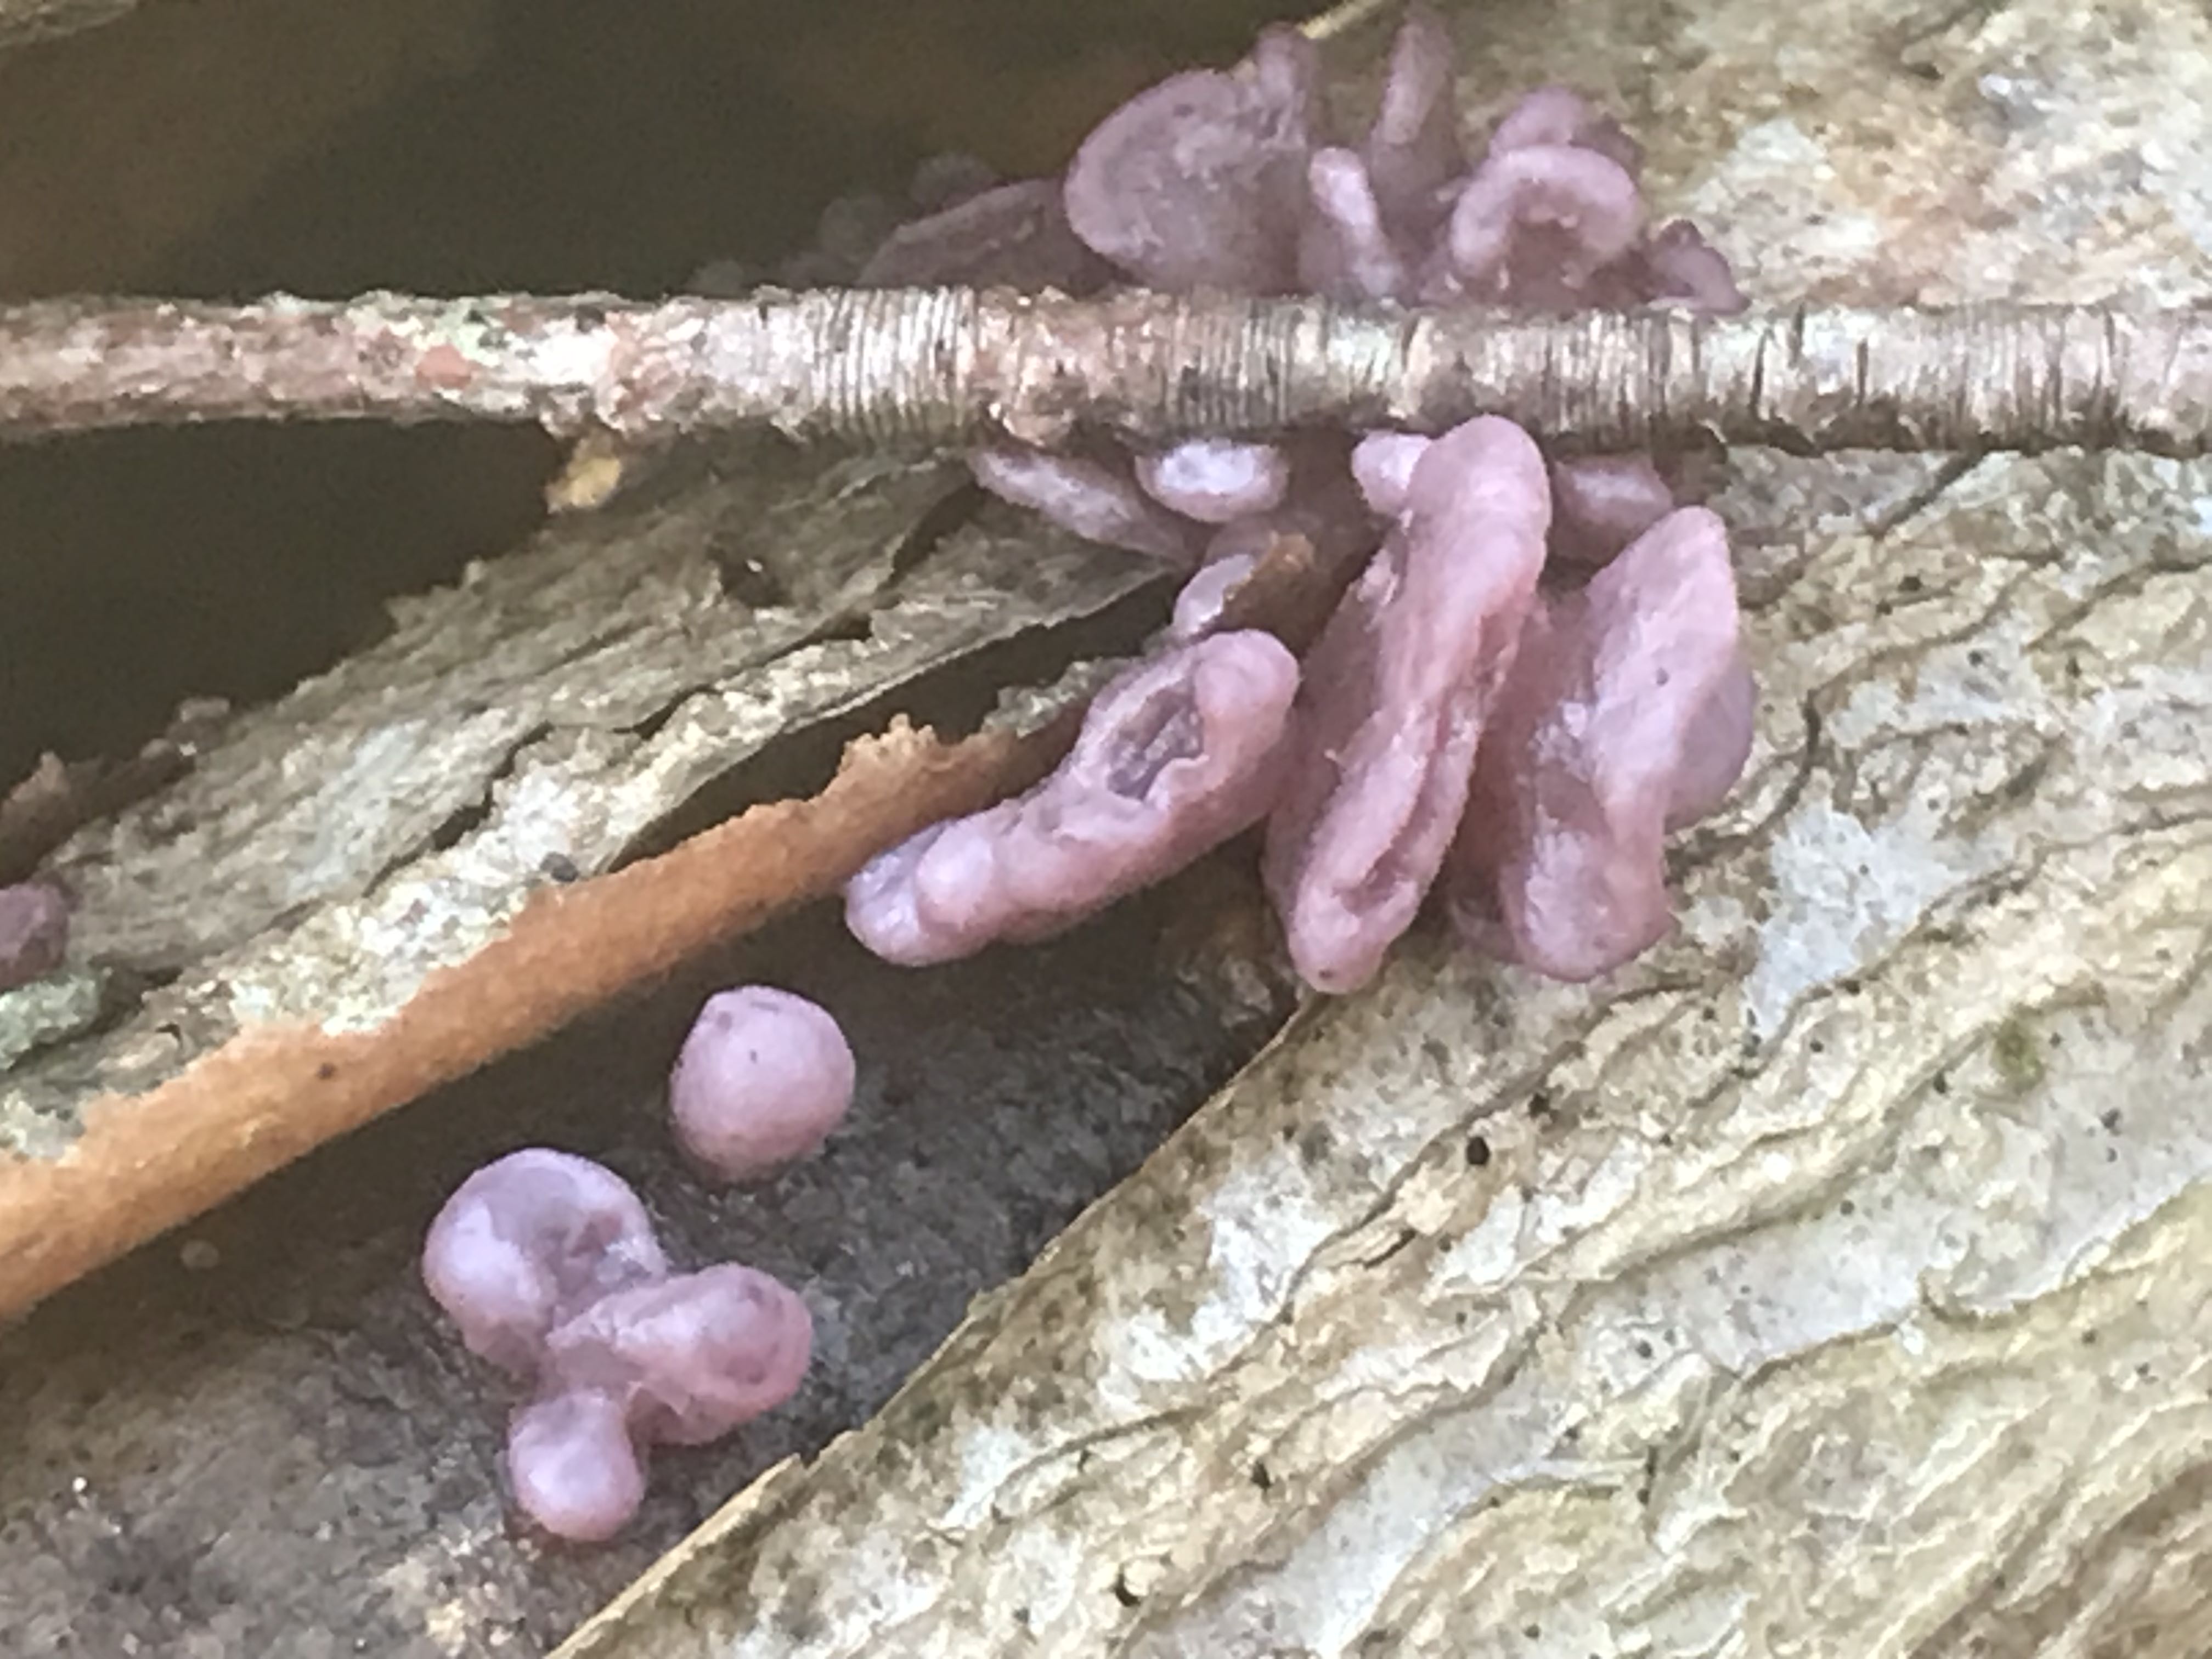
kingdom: Fungi
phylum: Ascomycota
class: Leotiomycetes
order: Helotiales
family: Gelatinodiscaceae
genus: Ascocoryne
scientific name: Ascocoryne sarcoides
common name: rødlilla sejskive
